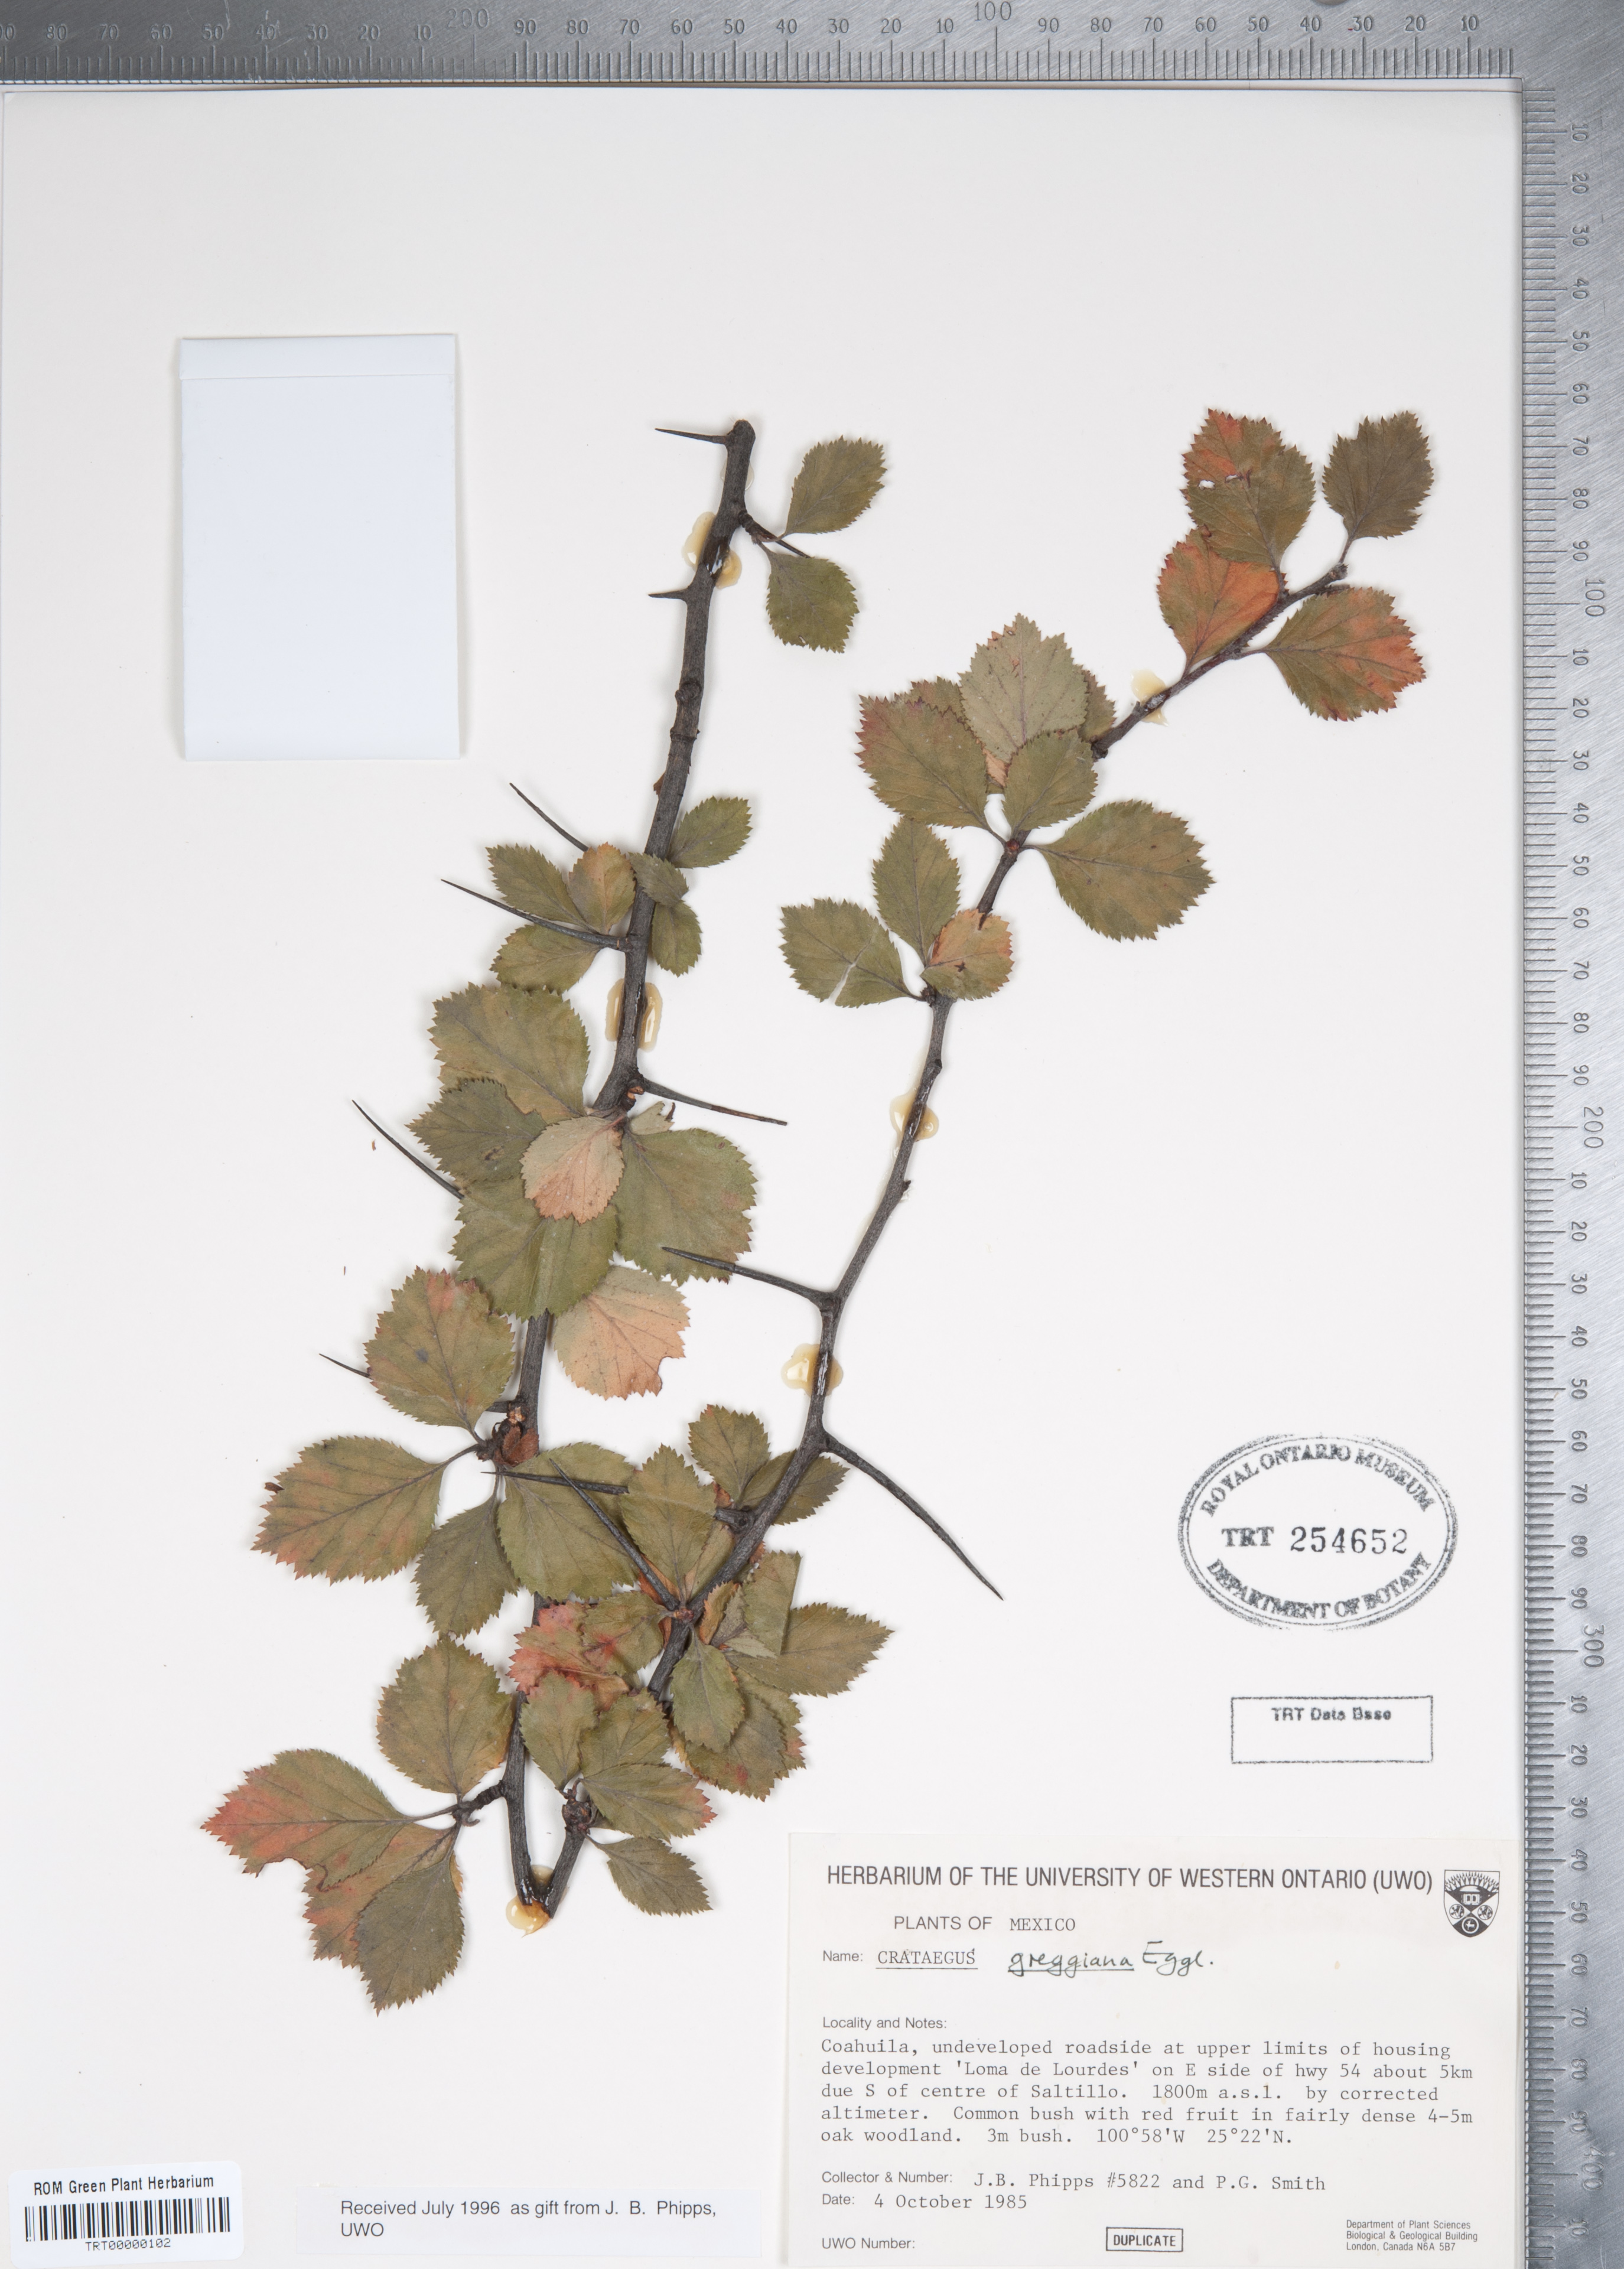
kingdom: Plantae
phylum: Tracheophyta
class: Magnoliopsida
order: Rosales
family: Rosaceae
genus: Crataegus
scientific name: Crataegus greggiana
